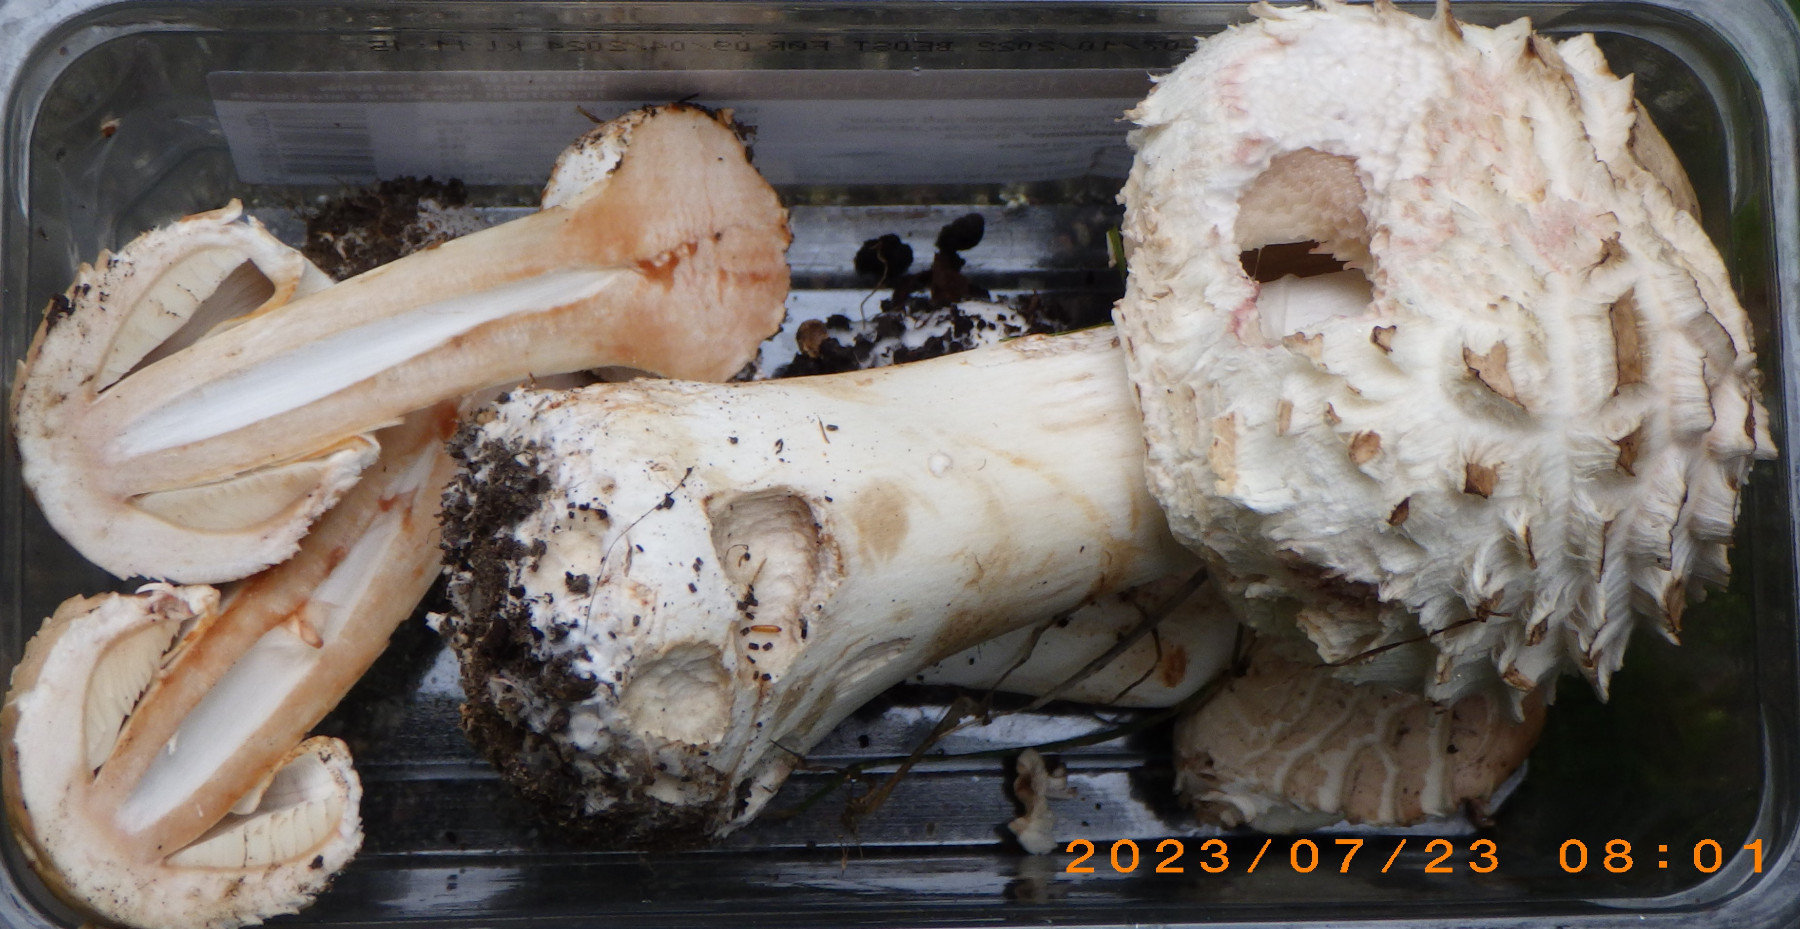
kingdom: Fungi
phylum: Basidiomycota
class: Agaricomycetes
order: Agaricales
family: Agaricaceae
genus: Chlorophyllum
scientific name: Chlorophyllum brunneum
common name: giftig rabarberhat
